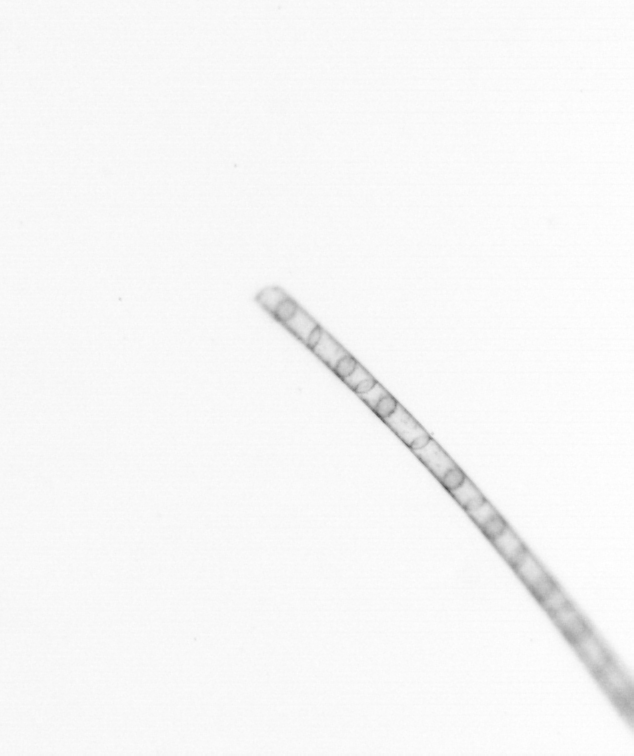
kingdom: Chromista
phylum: Ochrophyta
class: Bacillariophyceae
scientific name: Bacillariophyceae
